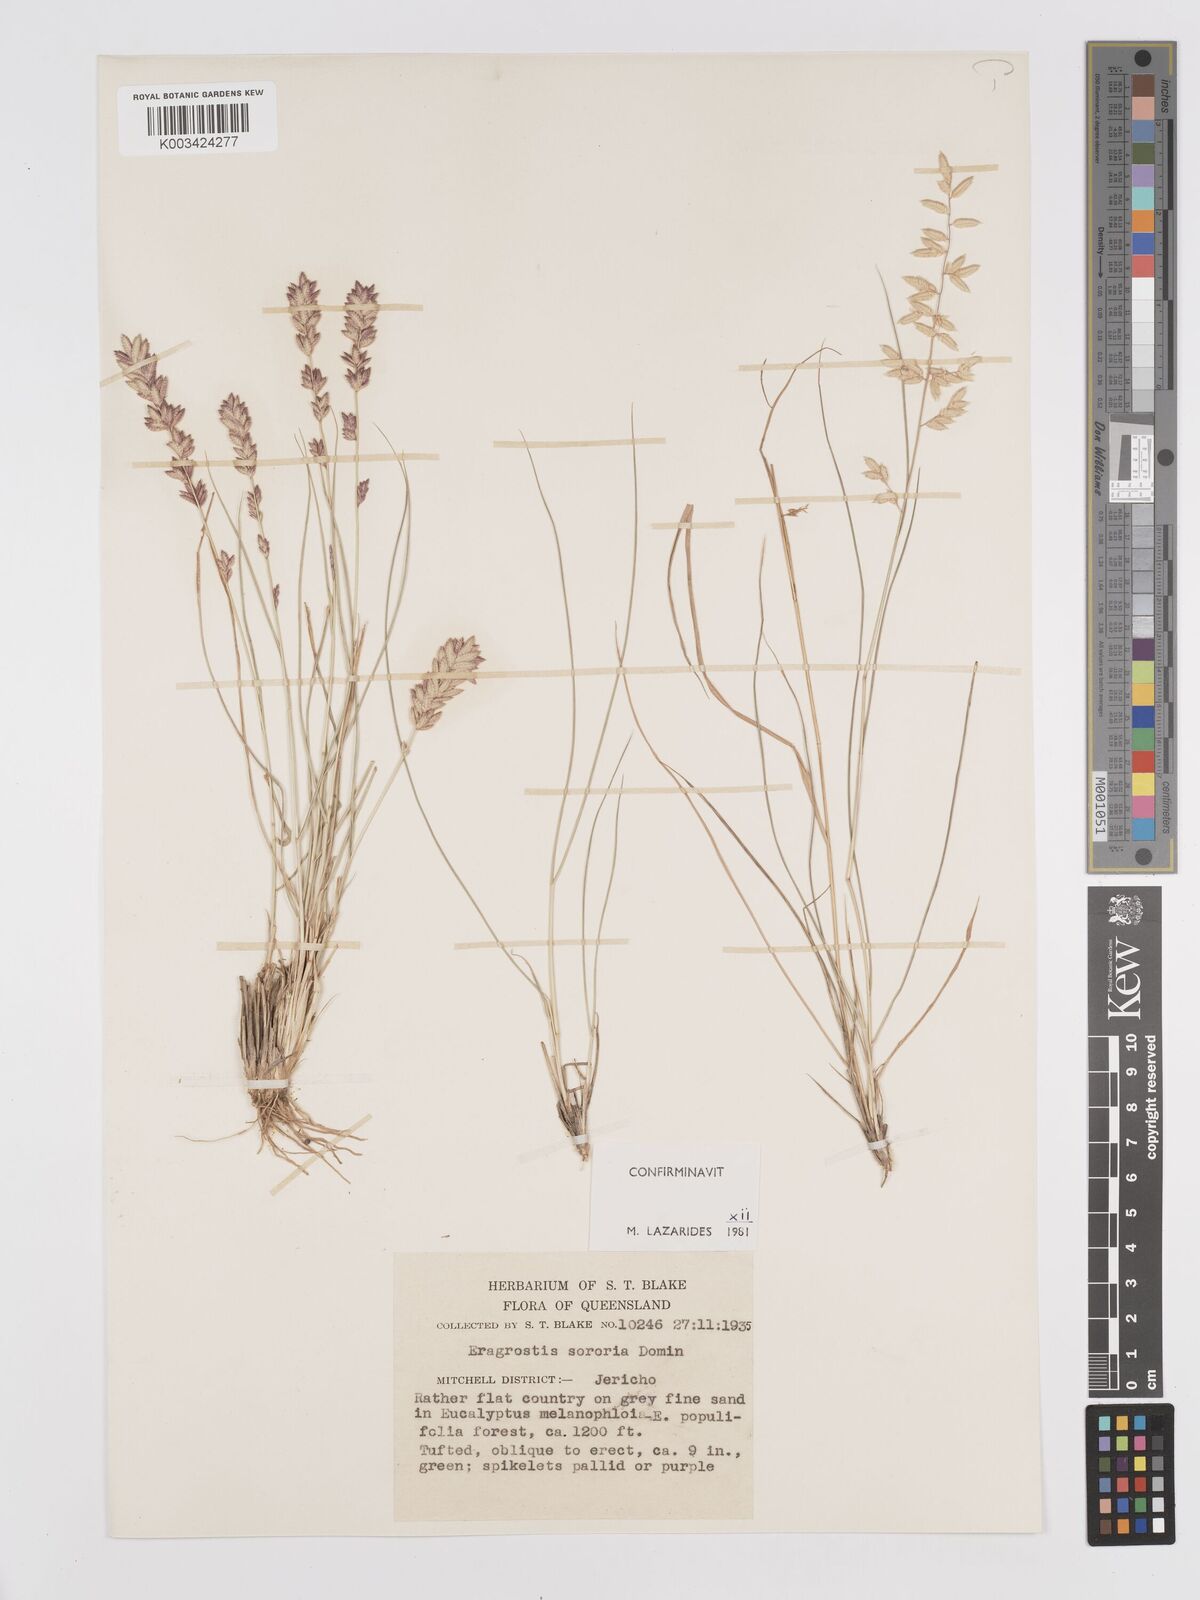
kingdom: Plantae
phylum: Tracheophyta
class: Liliopsida
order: Poales
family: Poaceae
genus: Eragrostis
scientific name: Eragrostis sororia
